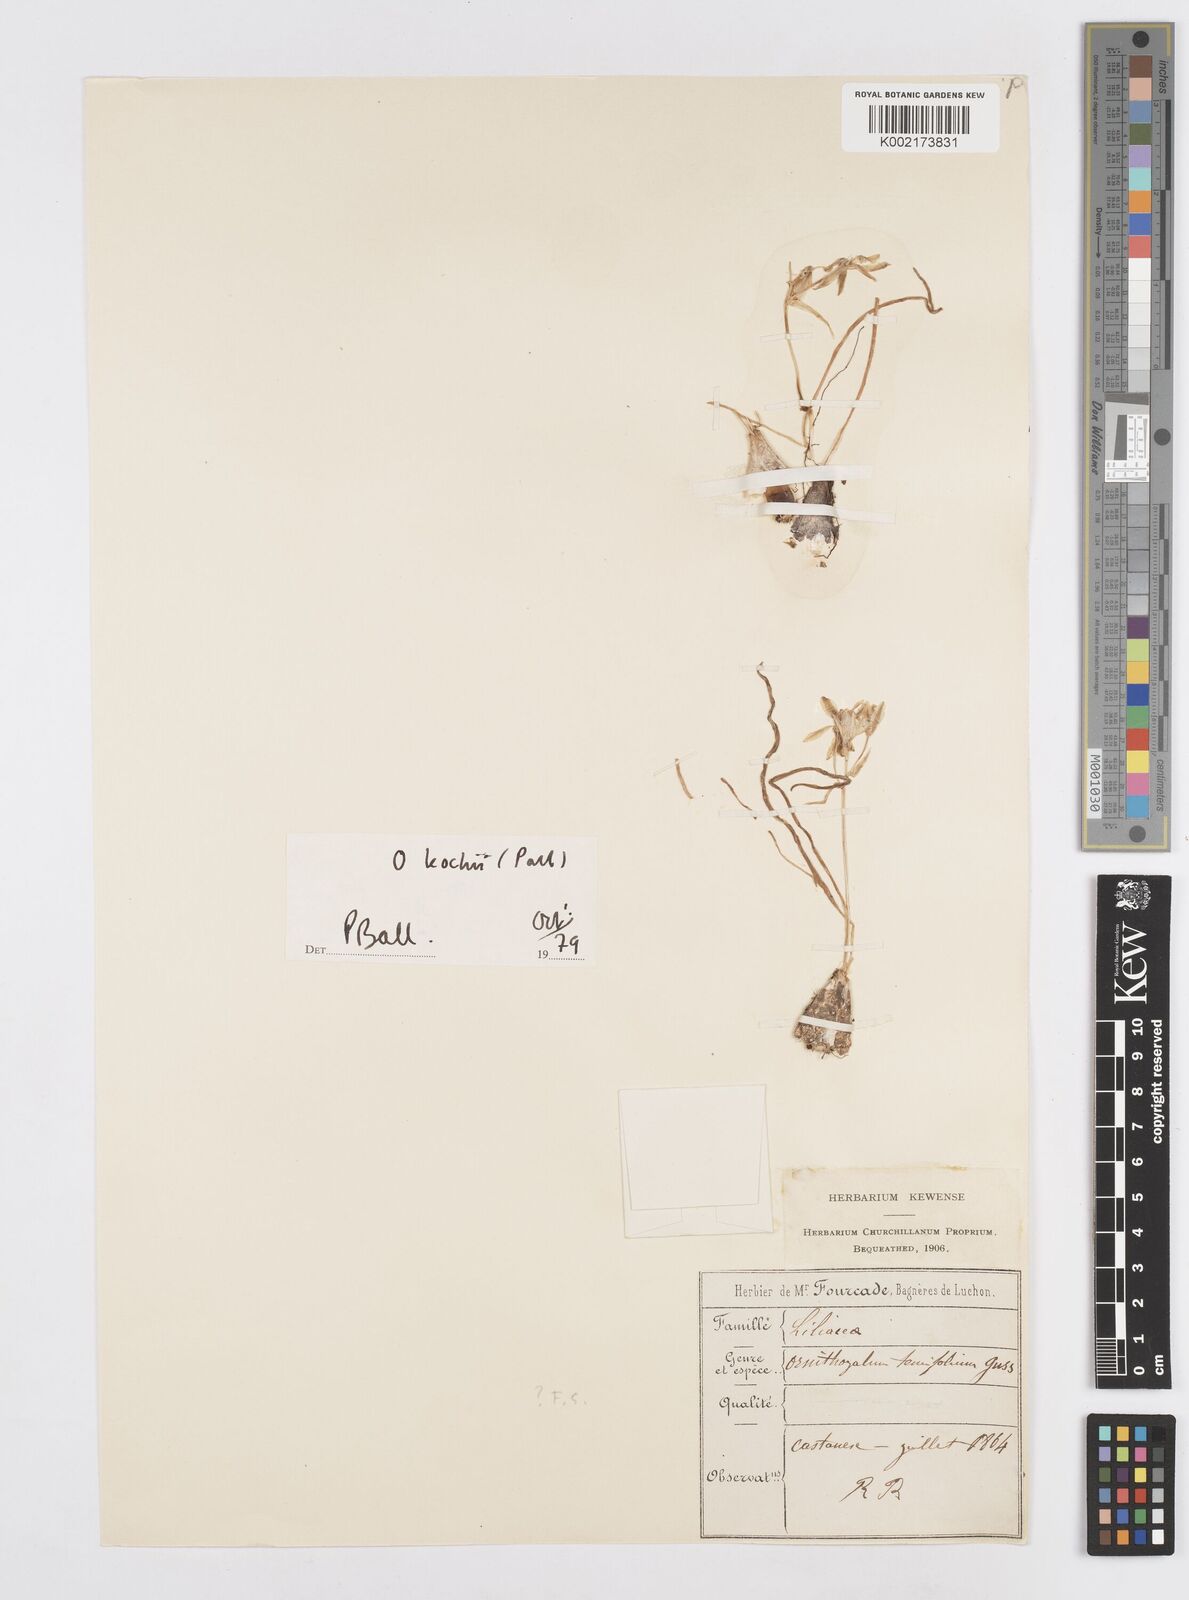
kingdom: Plantae
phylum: Tracheophyta
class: Liliopsida
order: Asparagales
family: Asparagaceae
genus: Ornithogalum
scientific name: Ornithogalum orthophyllum
